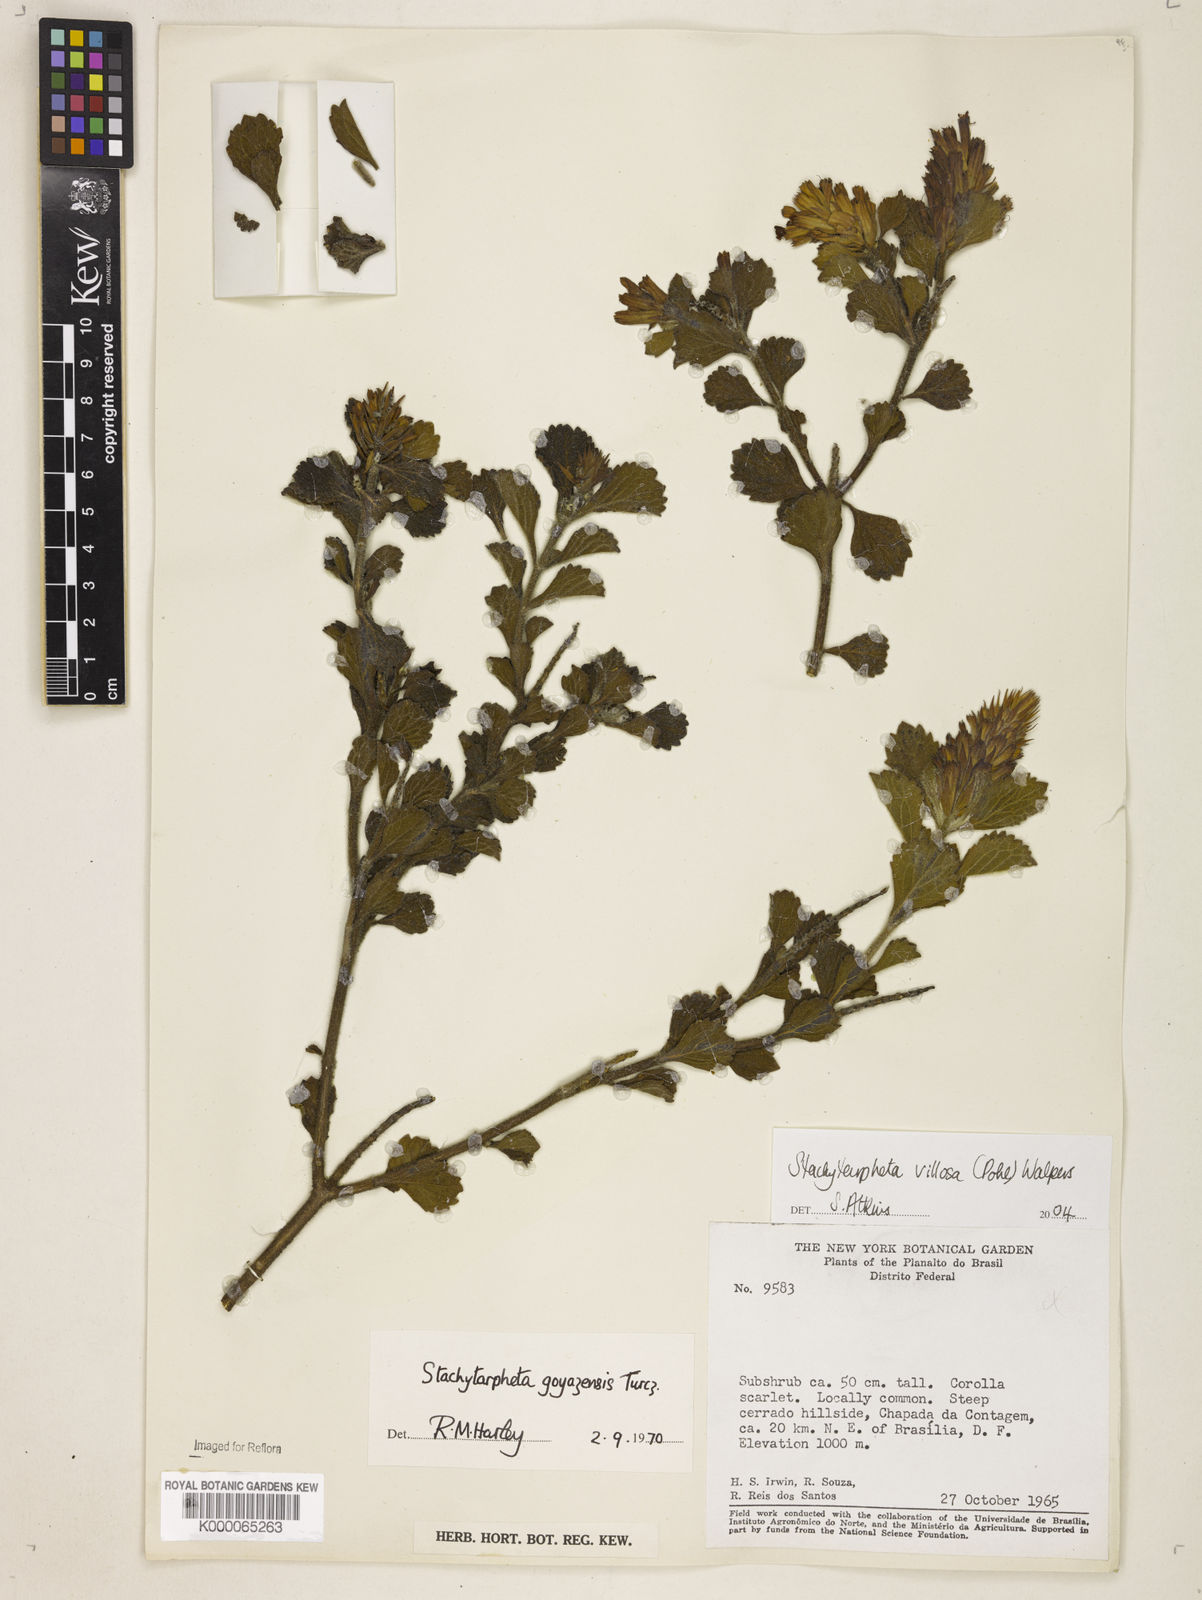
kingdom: Plantae
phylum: Tracheophyta
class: Magnoliopsida
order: Lamiales
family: Verbenaceae
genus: Stachytarpheta
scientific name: Stachytarpheta villosa
